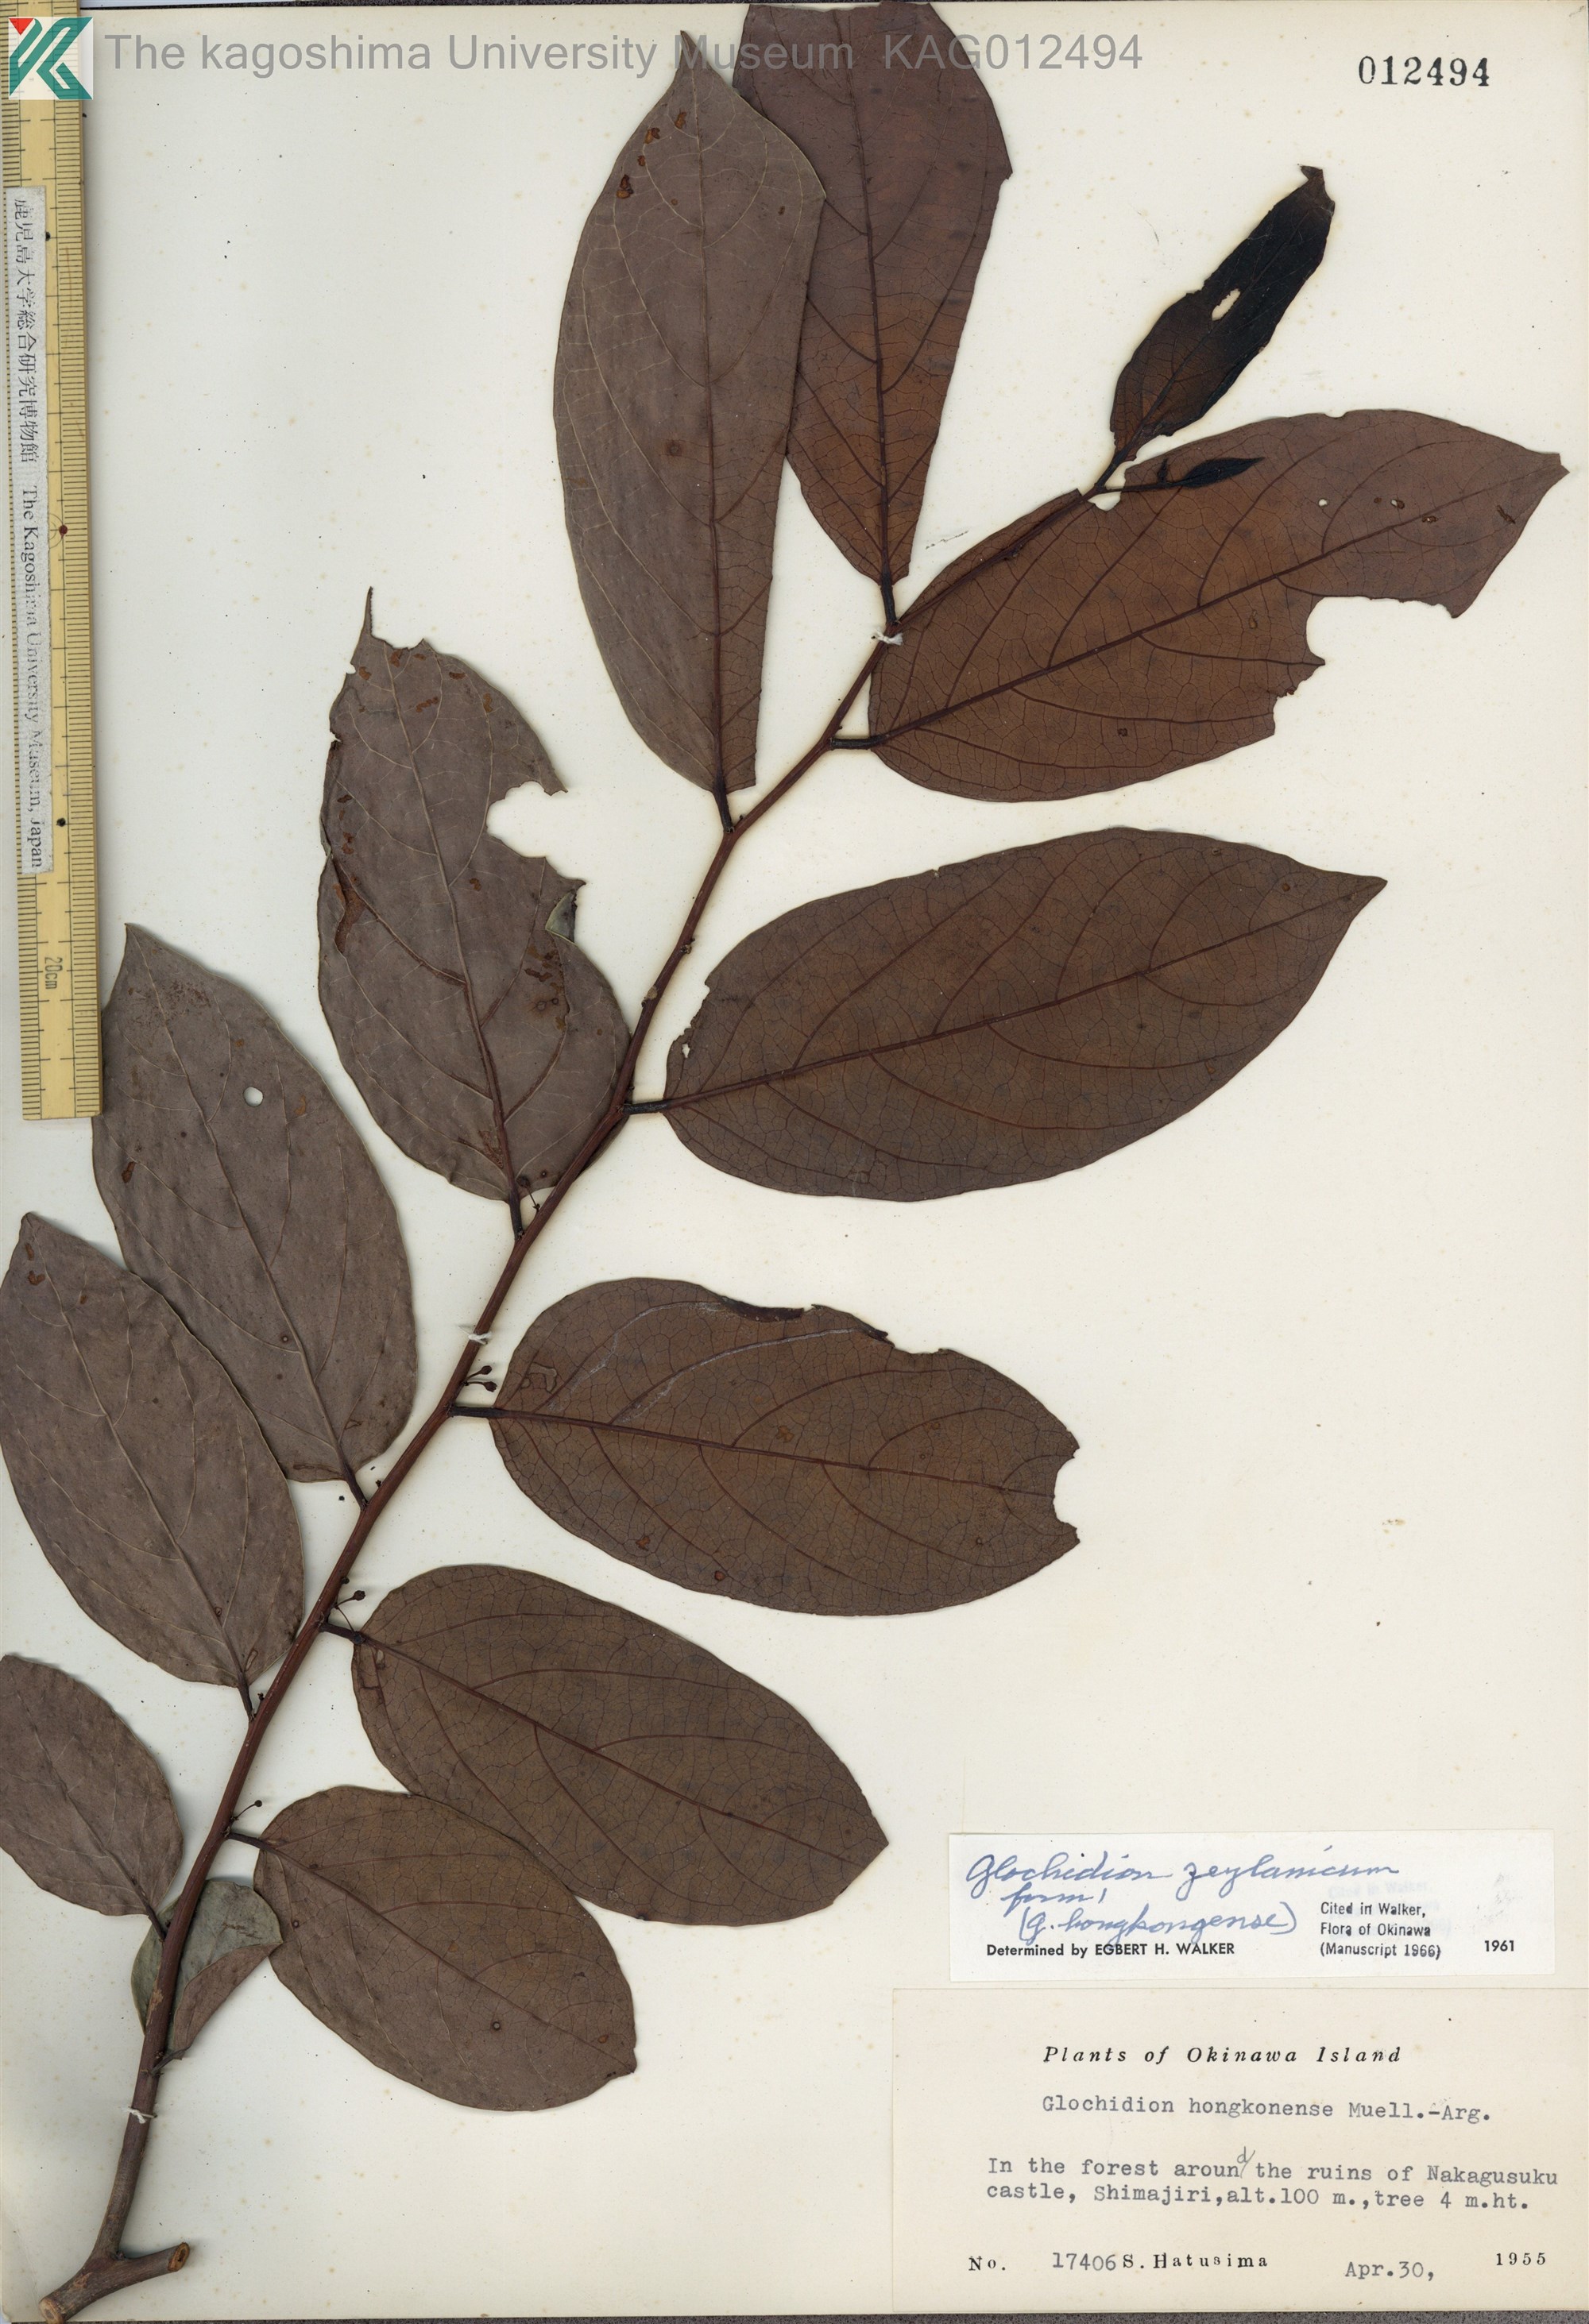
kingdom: Plantae
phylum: Tracheophyta
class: Magnoliopsida
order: Malpighiales
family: Phyllanthaceae
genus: Glochidion
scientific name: Glochidion zeylanicum
